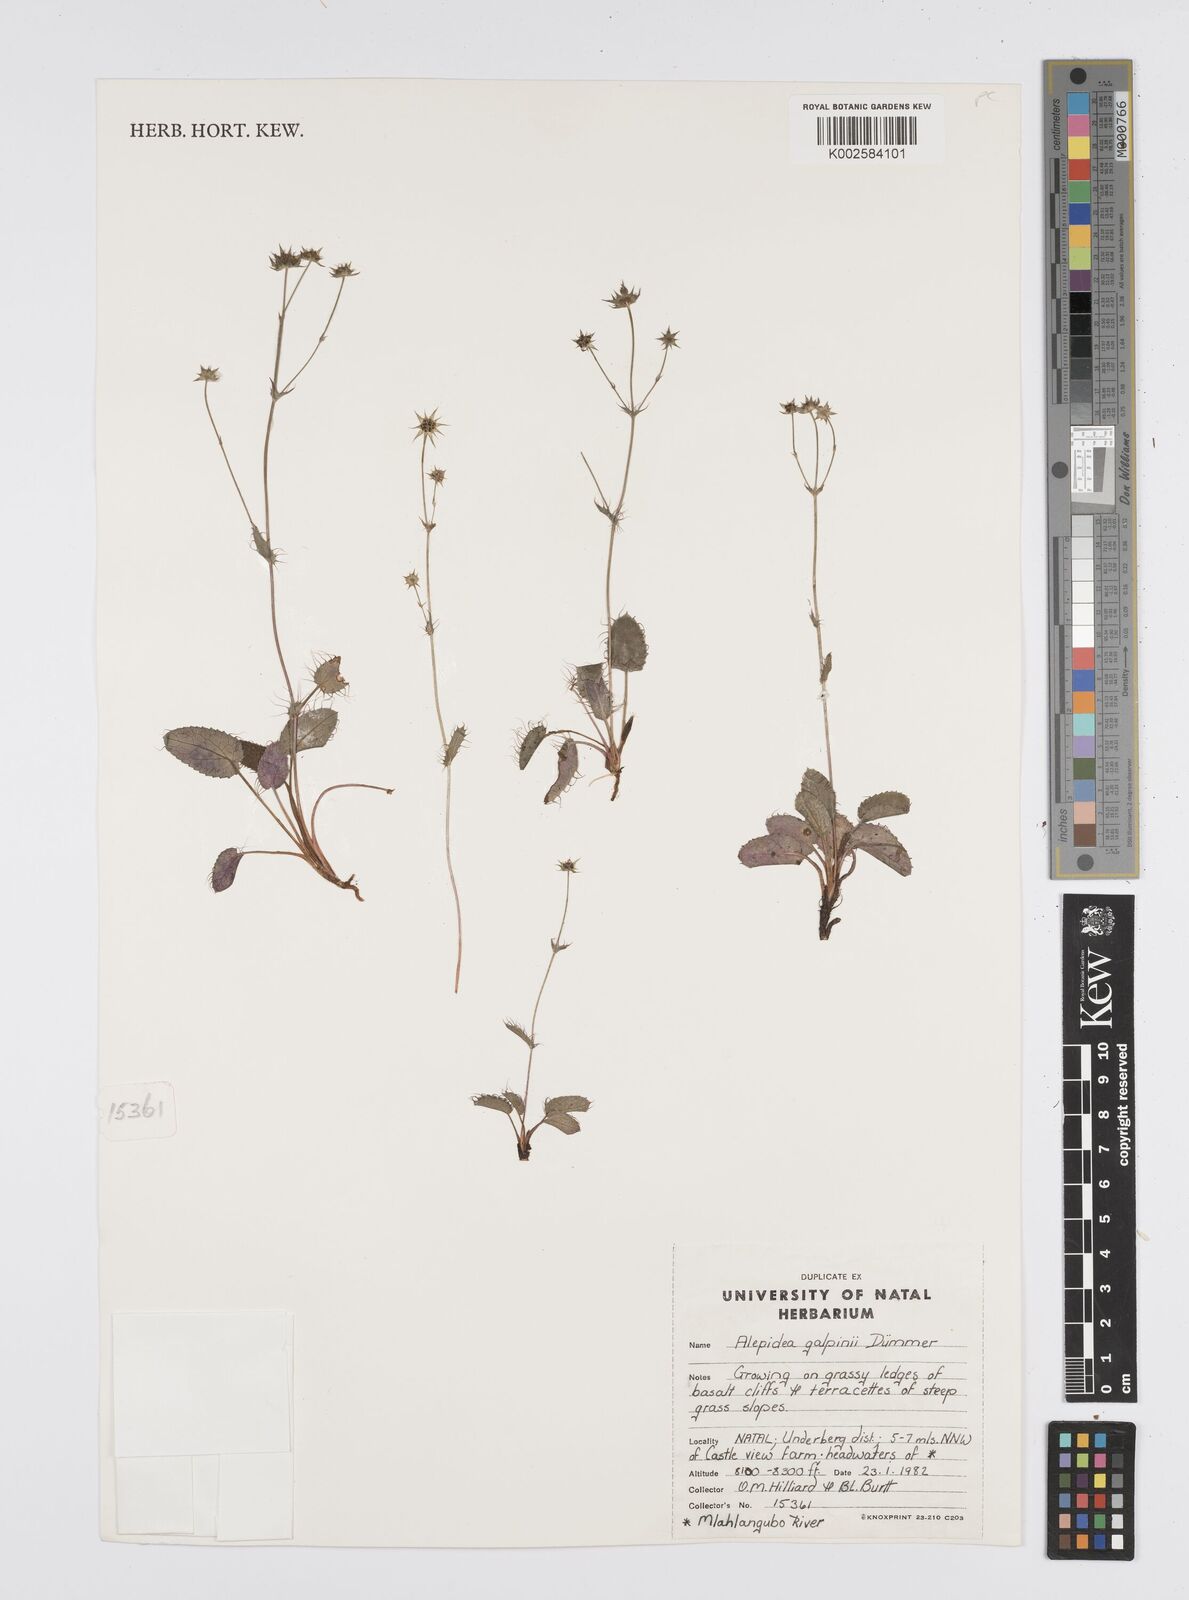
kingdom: Plantae
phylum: Tracheophyta
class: Magnoliopsida
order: Apiales
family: Apiaceae
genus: Alepidea
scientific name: Alepidea galpinii
